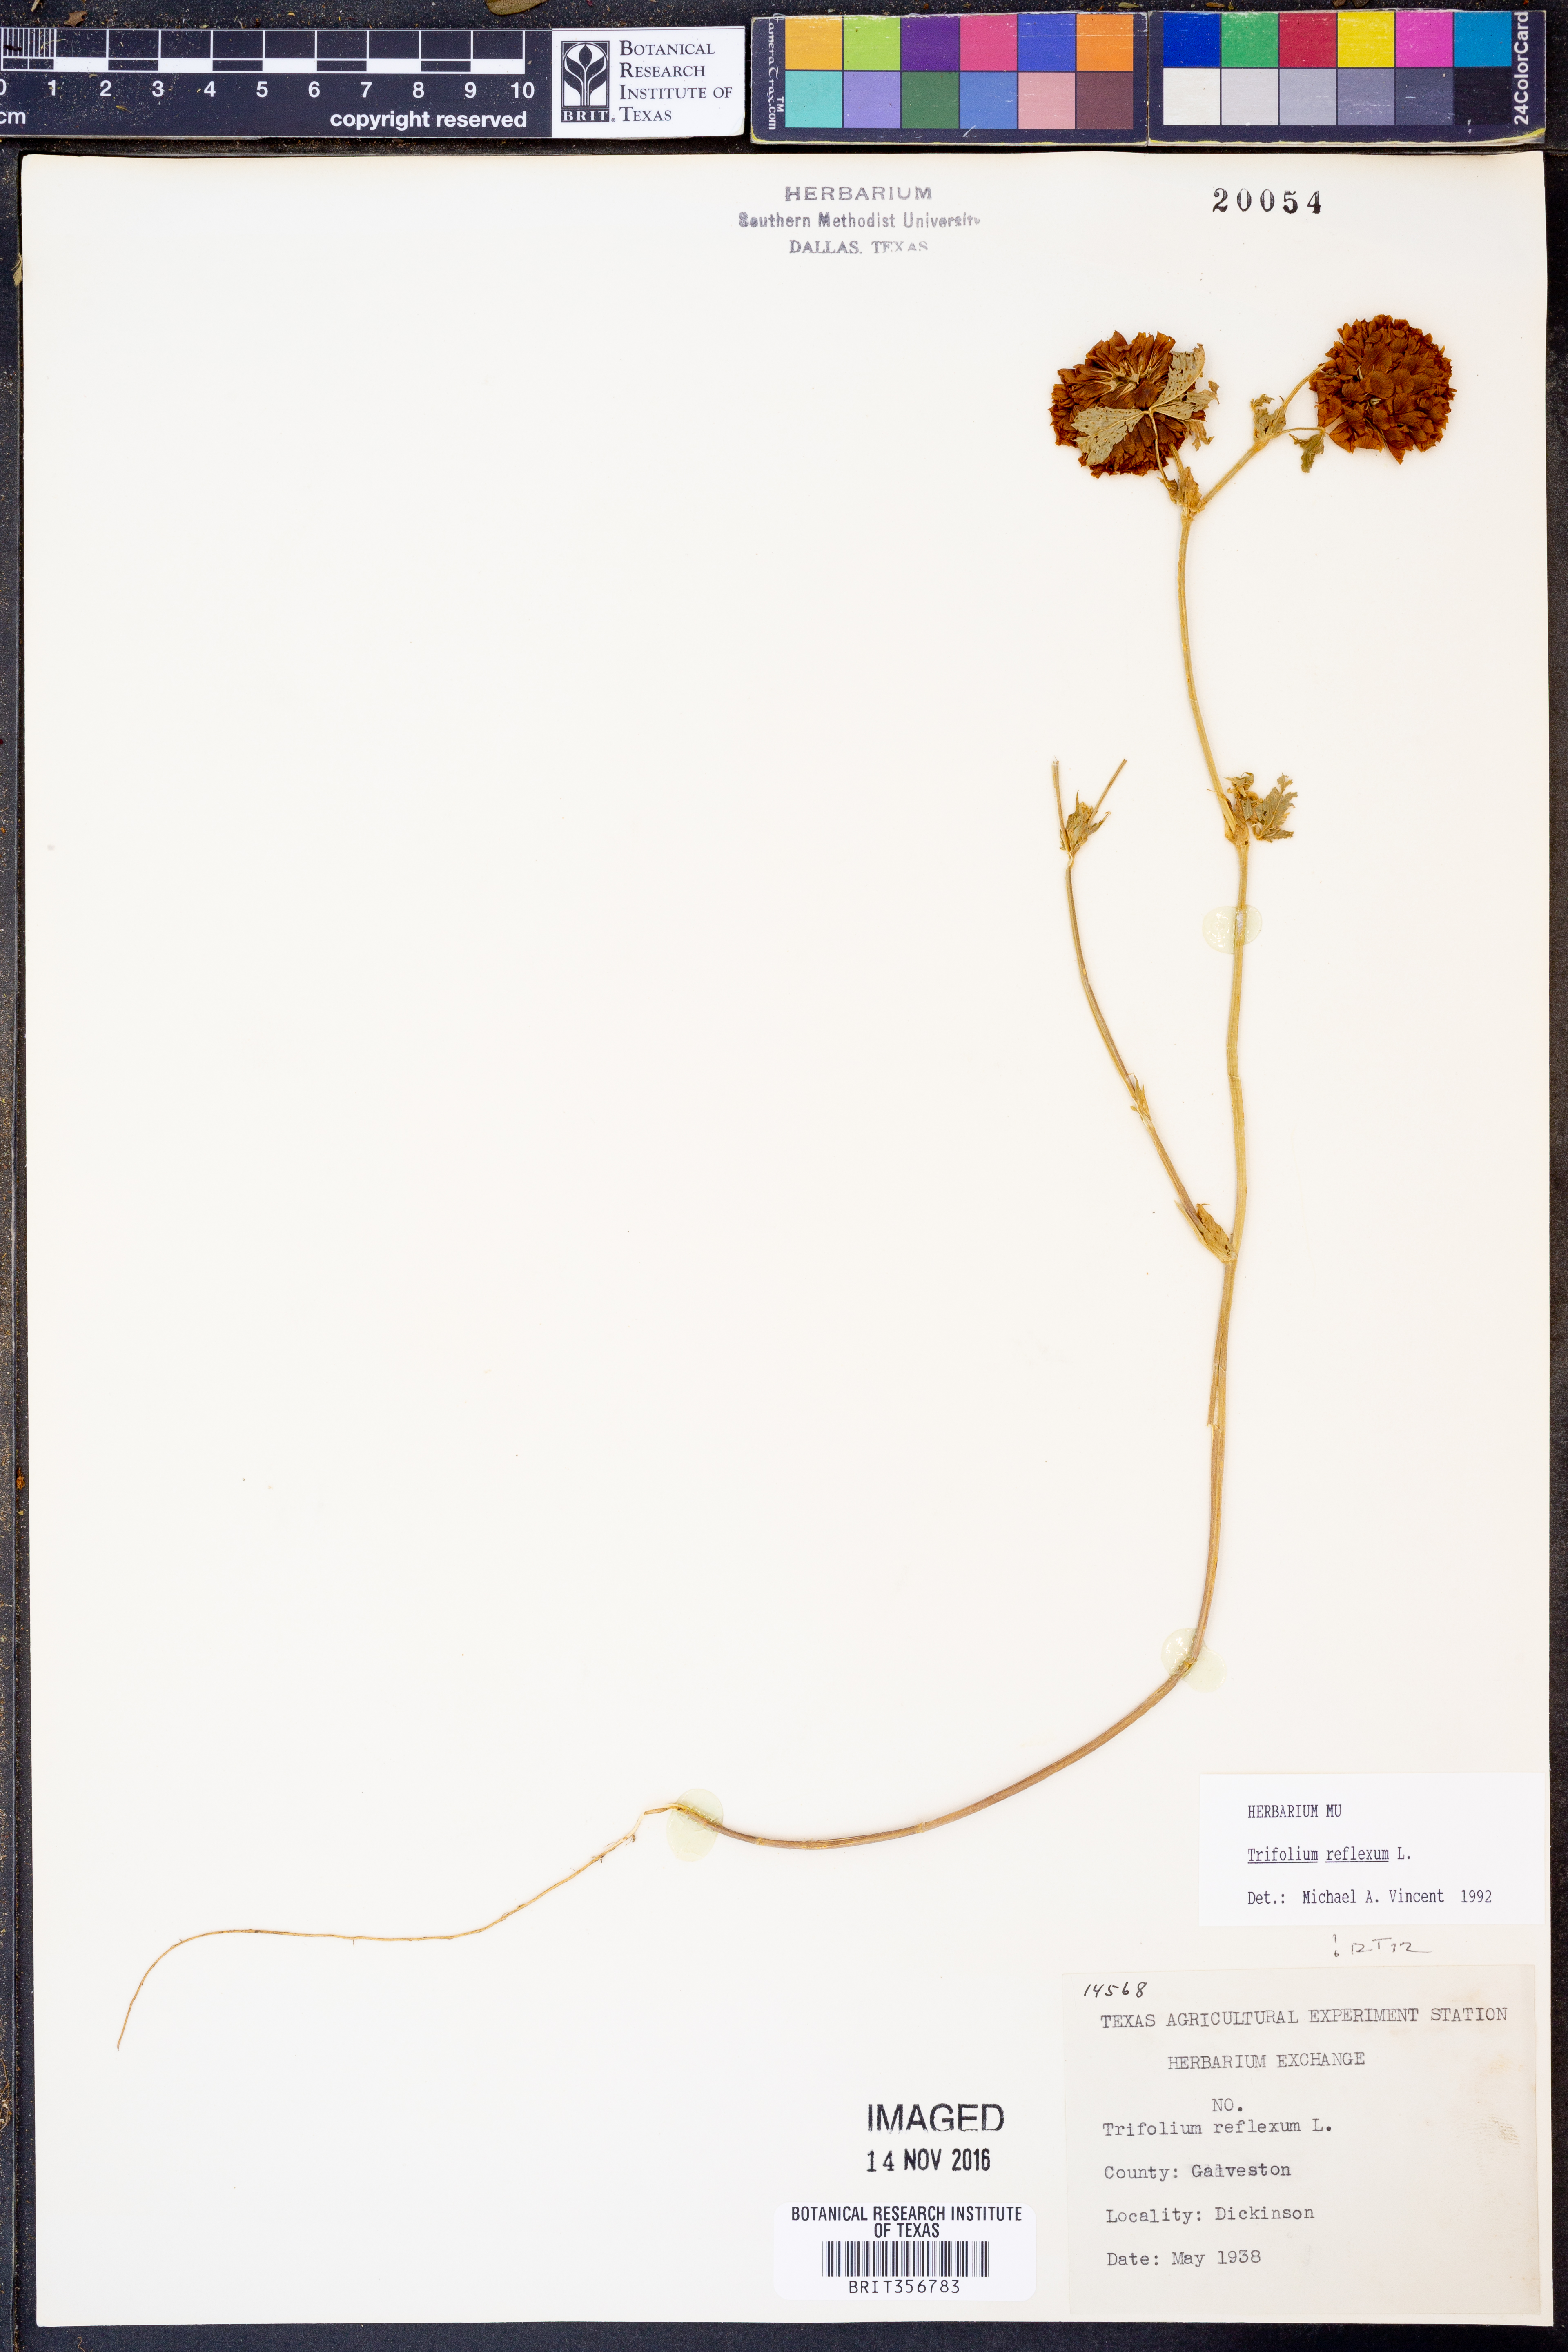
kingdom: Plantae
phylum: Tracheophyta
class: Magnoliopsida
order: Fabales
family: Fabaceae
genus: Trifolium
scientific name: Trifolium reflexum
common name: Buffalo clover
